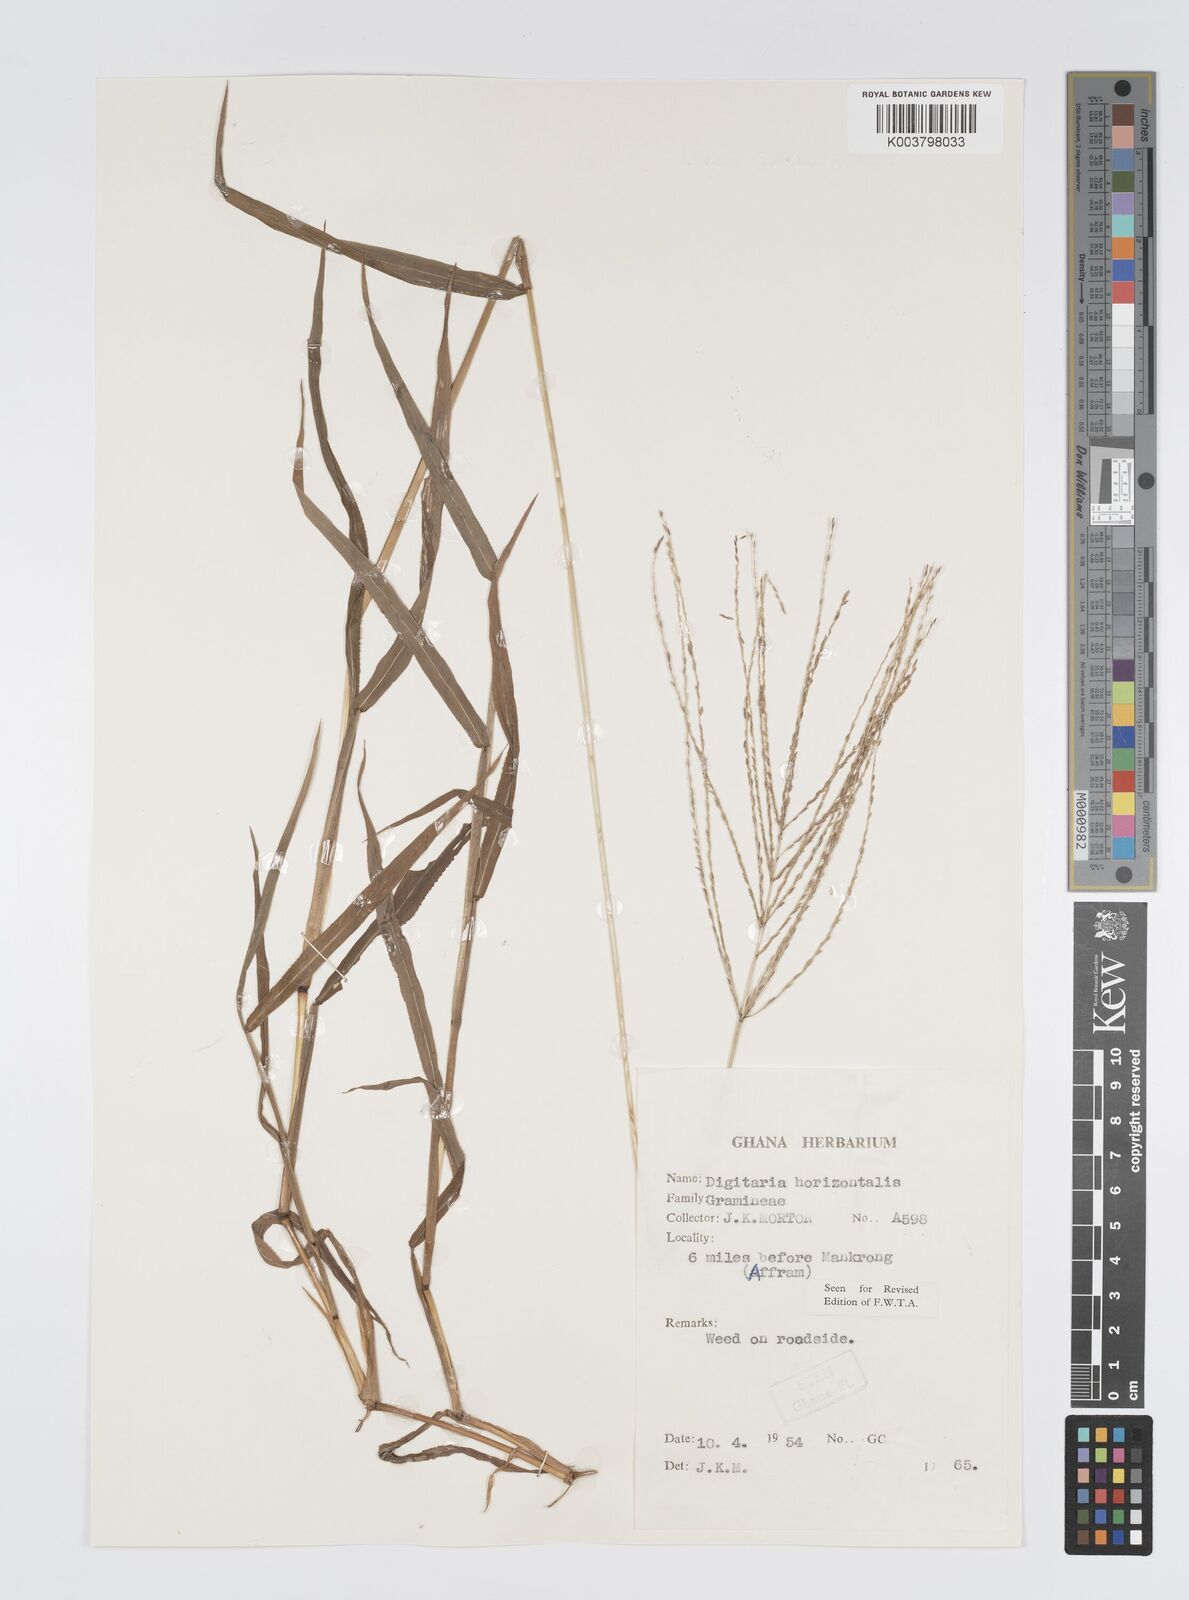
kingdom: Plantae
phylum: Tracheophyta
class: Liliopsida
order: Poales
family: Poaceae
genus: Digitaria
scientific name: Digitaria horizontalis
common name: Jamaican crabgrass
